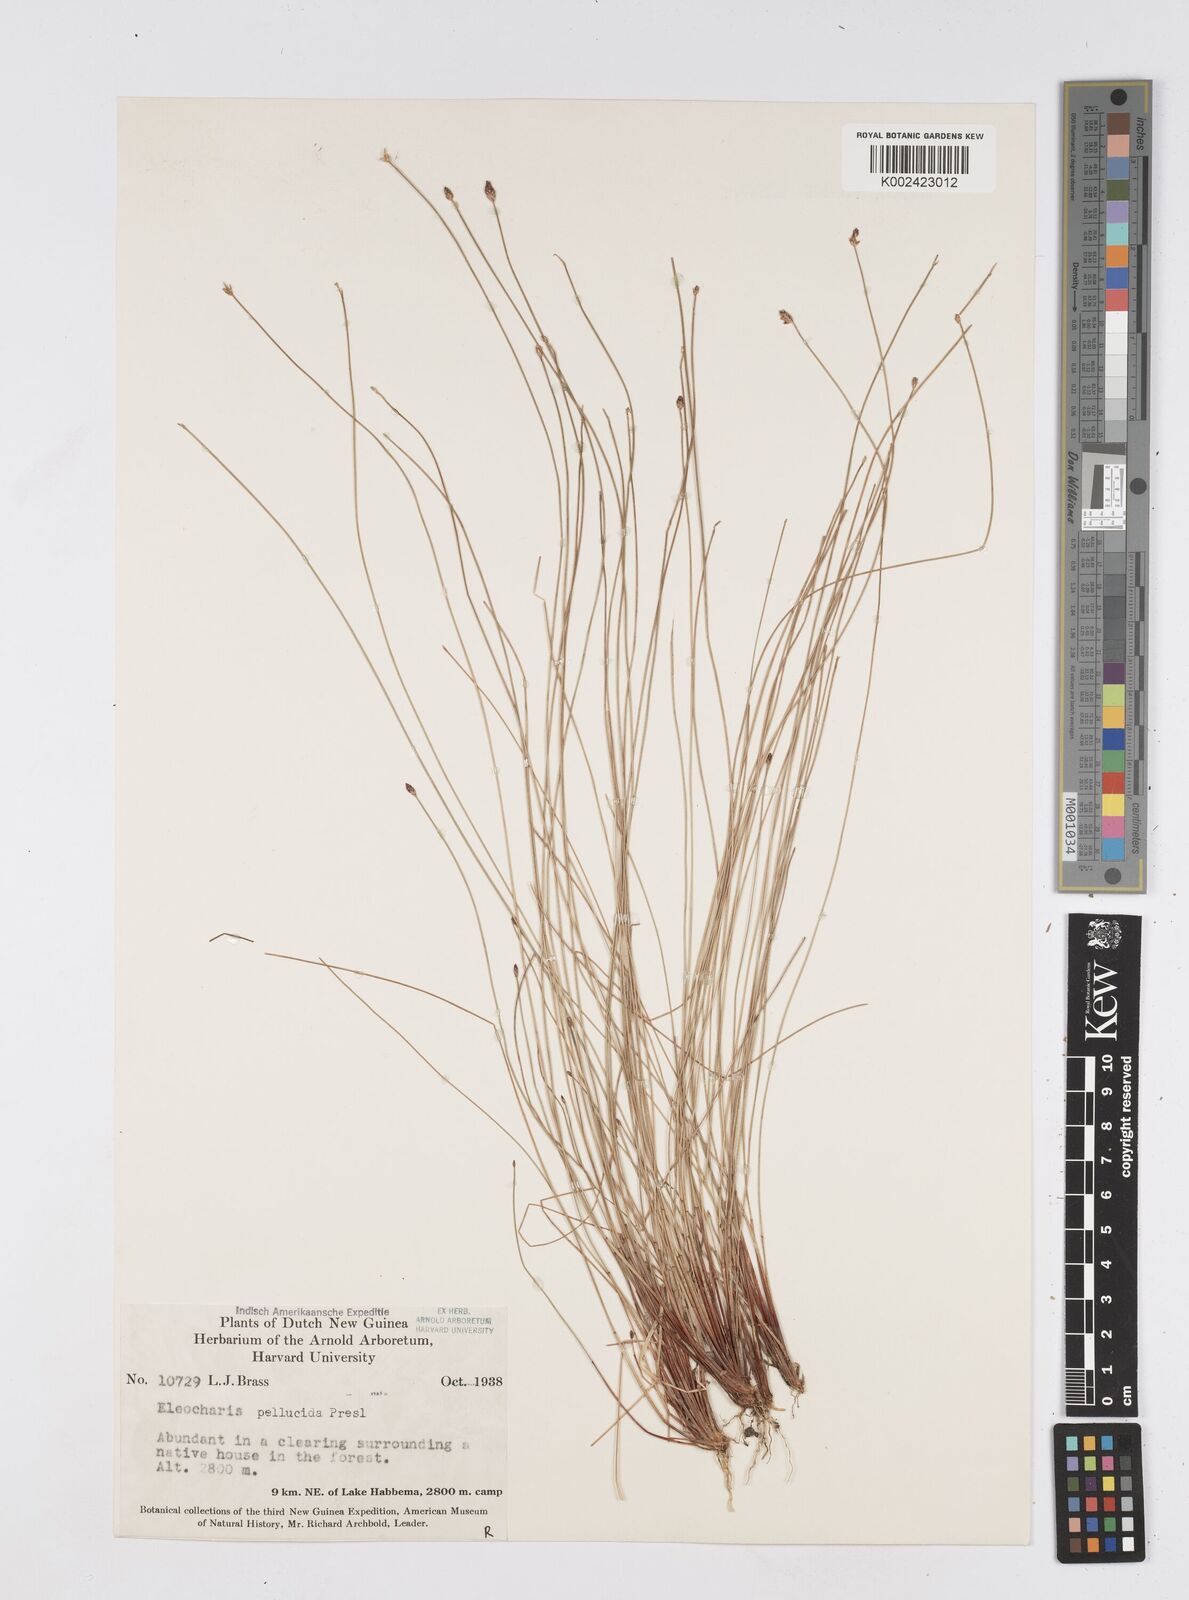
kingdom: Plantae
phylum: Tracheophyta
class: Liliopsida
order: Poales
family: Cyperaceae
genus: Eleocharis
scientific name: Eleocharis pellucida
